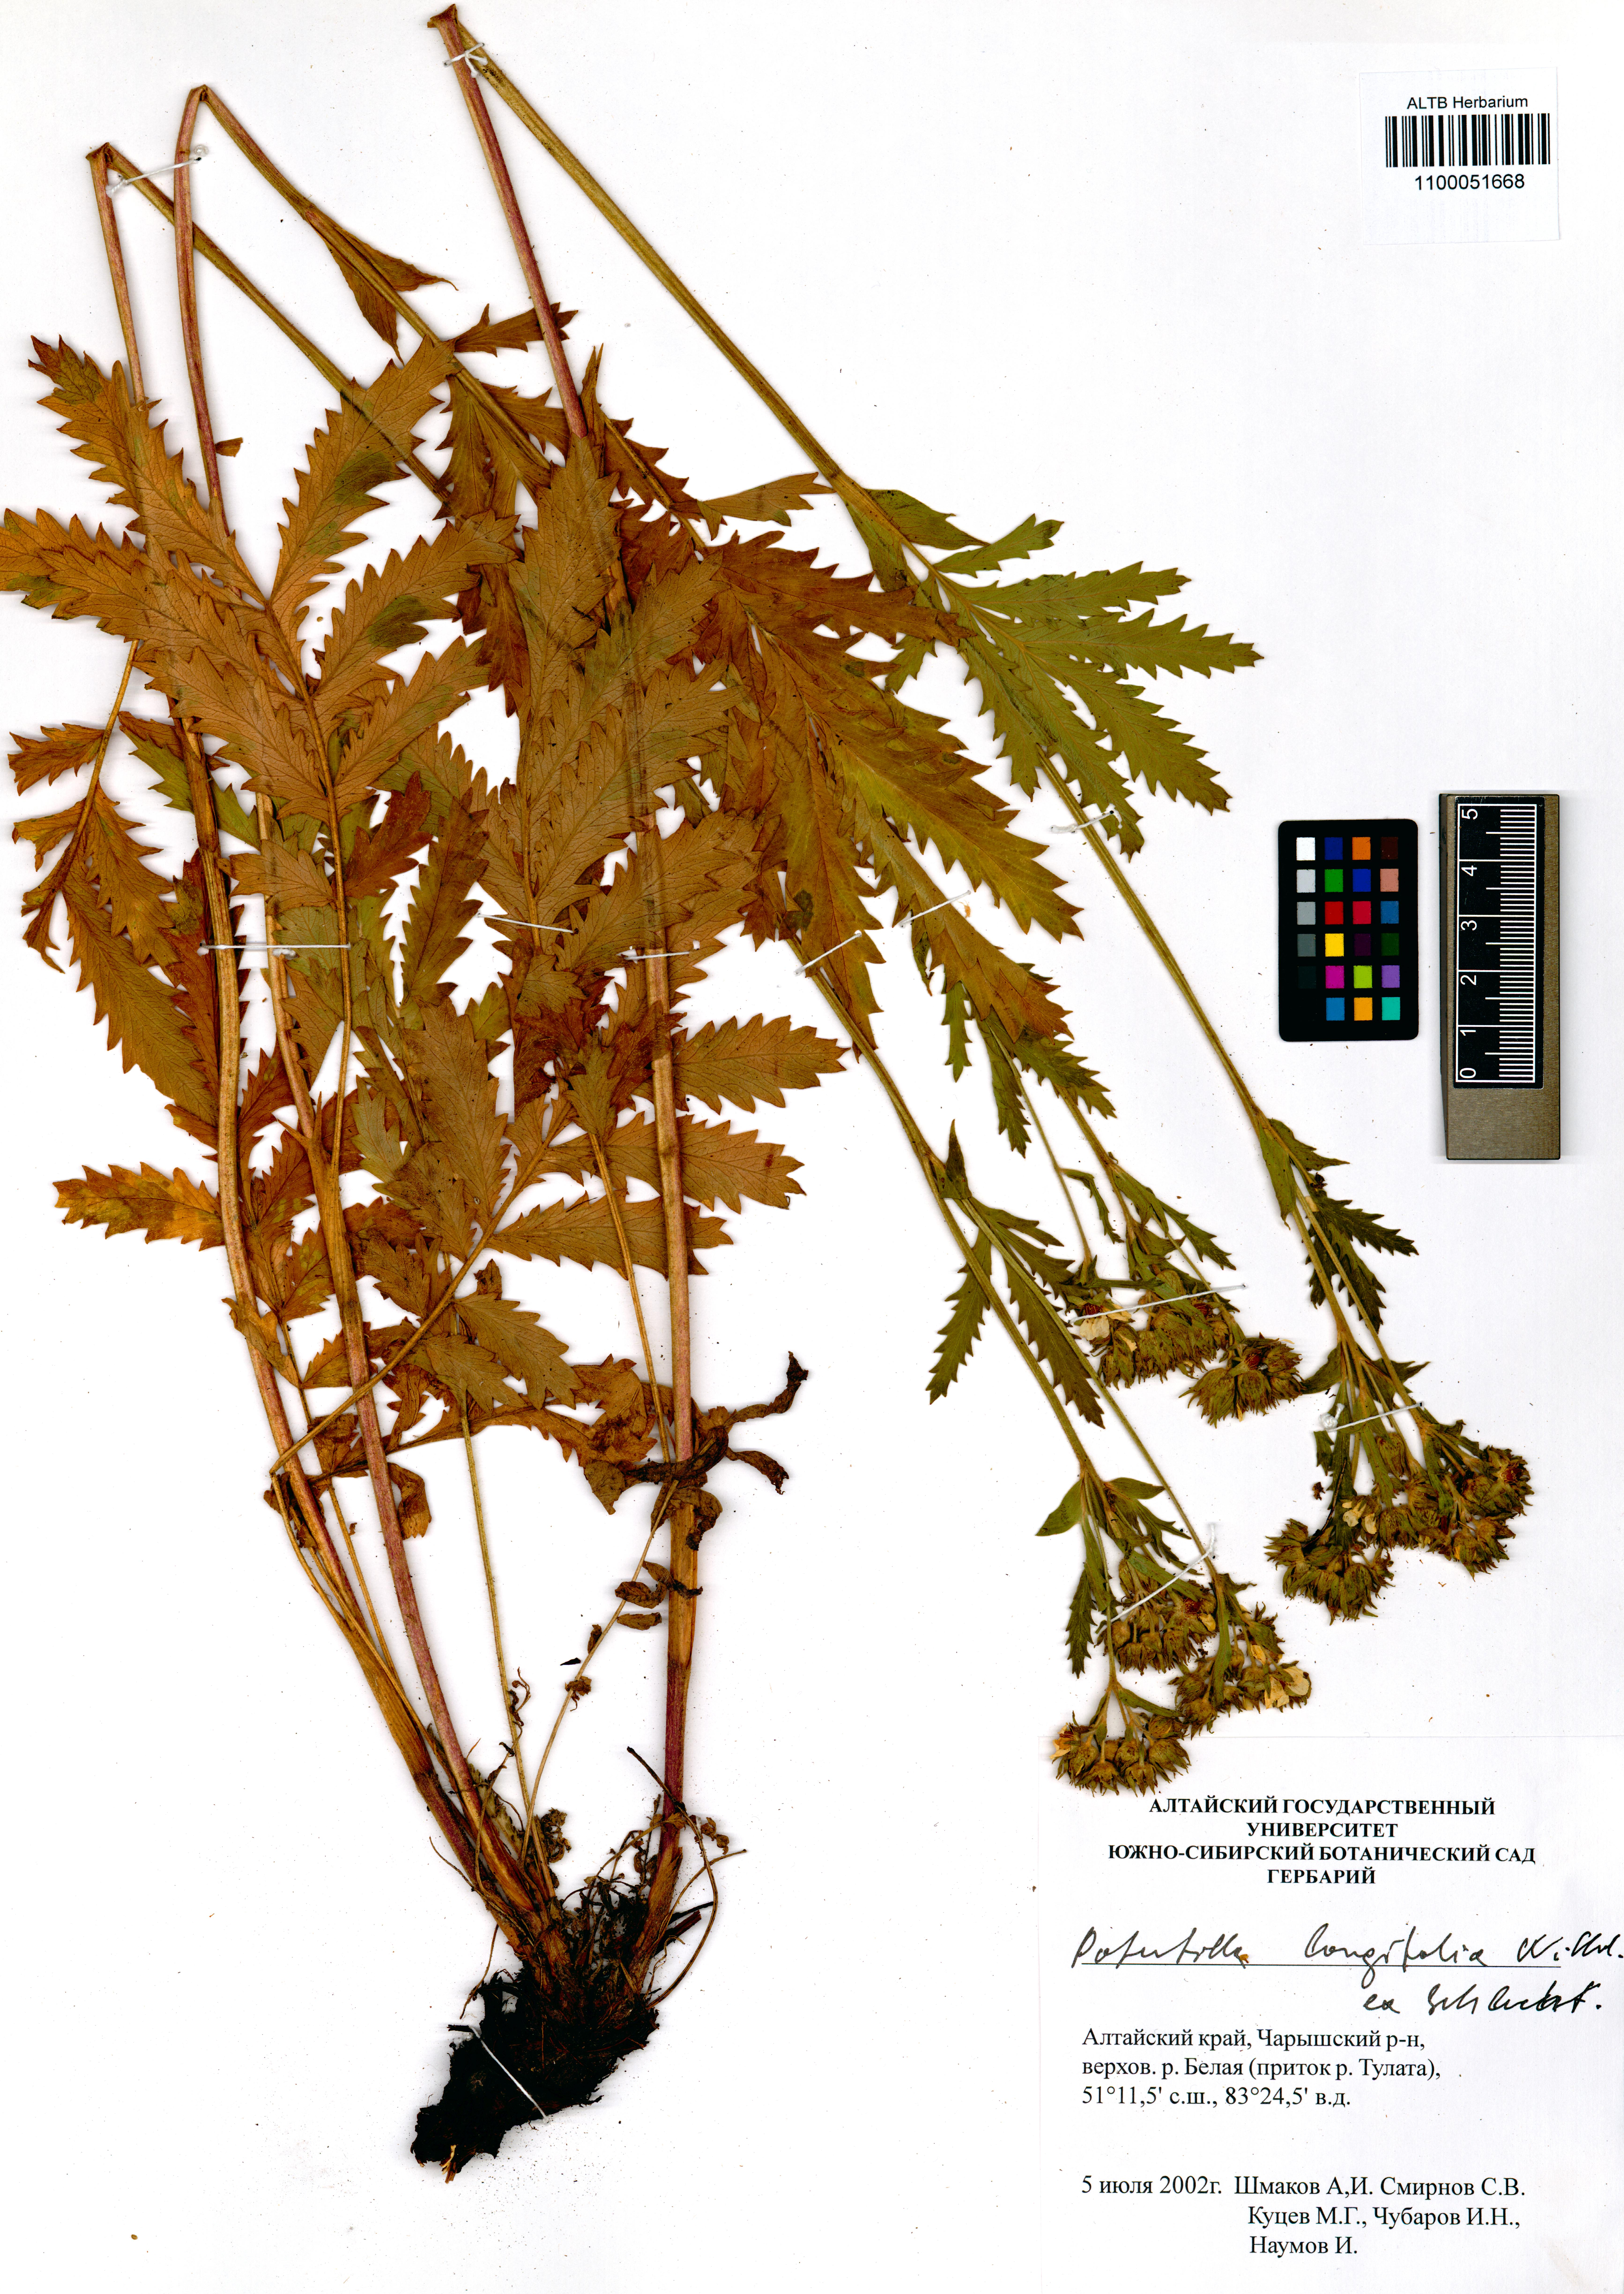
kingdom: Plantae
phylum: Tracheophyta
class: Magnoliopsida
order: Rosales
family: Rosaceae
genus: Potentilla
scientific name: Potentilla longifolia
